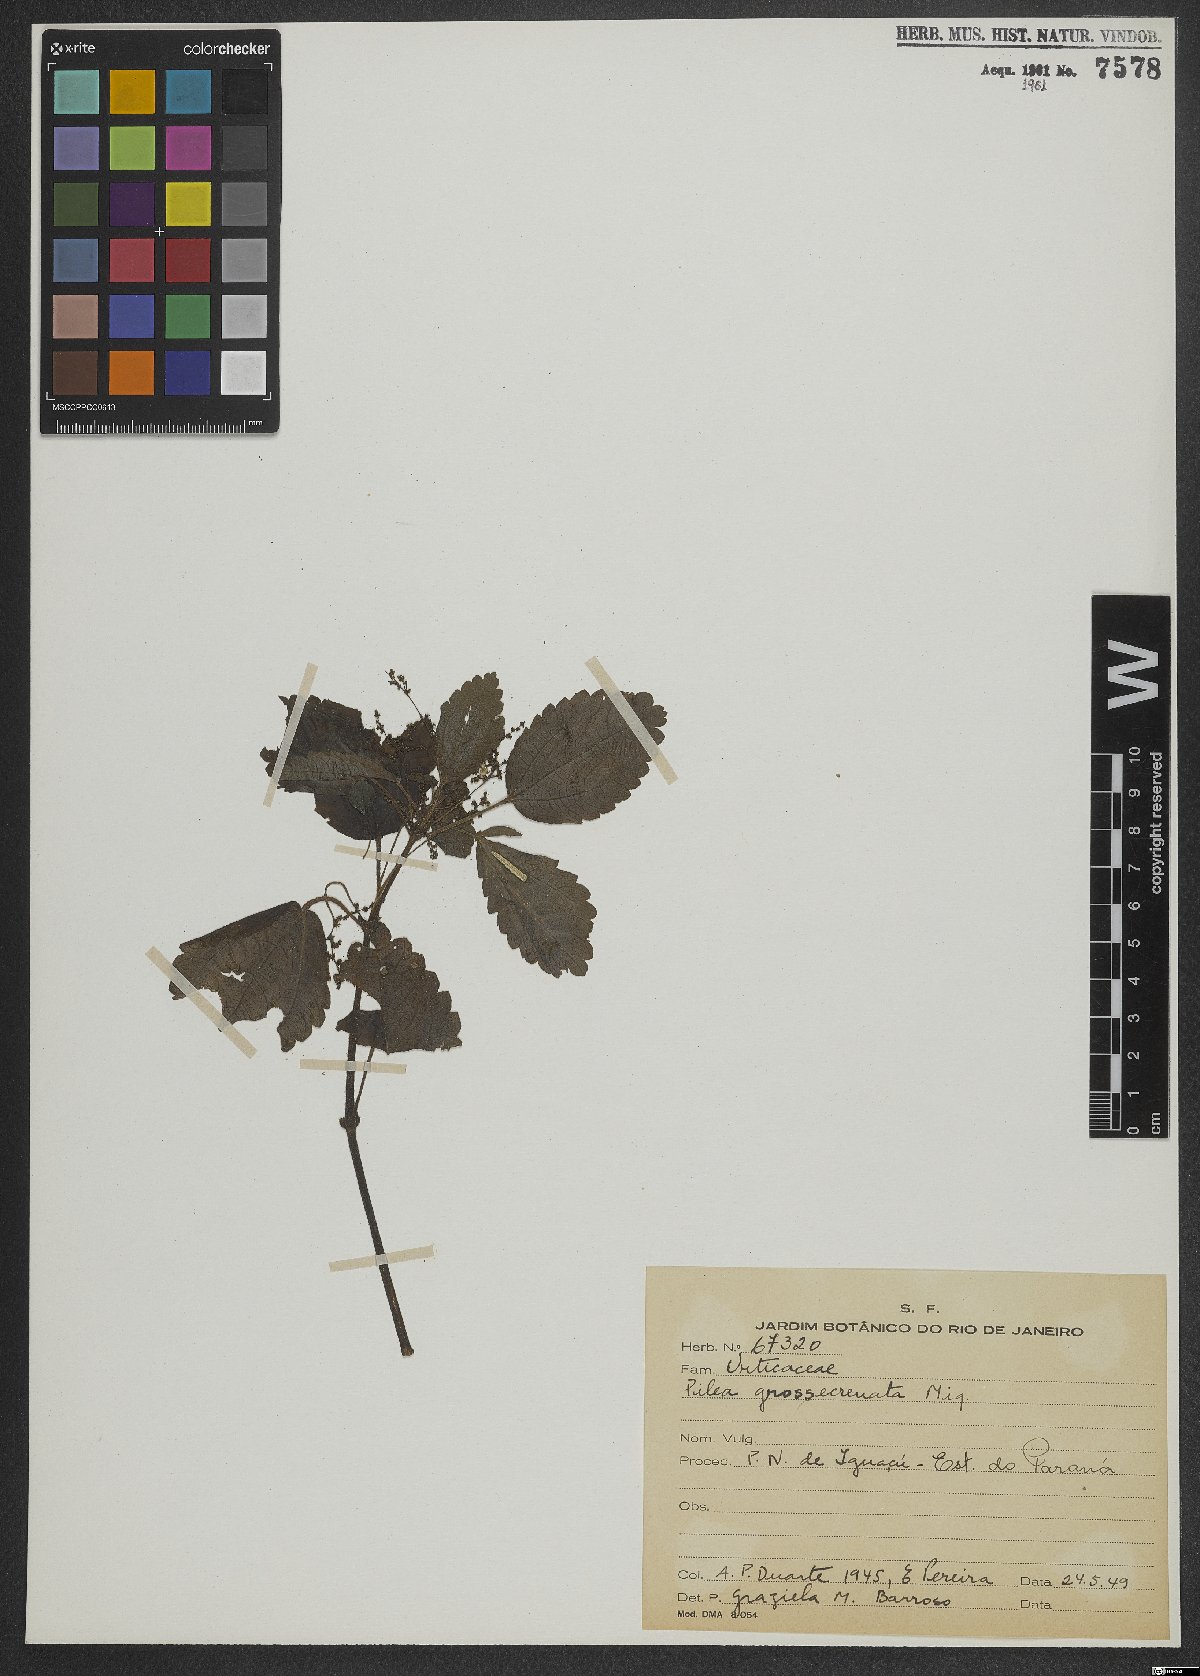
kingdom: Plantae
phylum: Tracheophyta
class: Magnoliopsida
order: Rosales
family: Urticaceae
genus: Pilea
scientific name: Pilea pubescens
